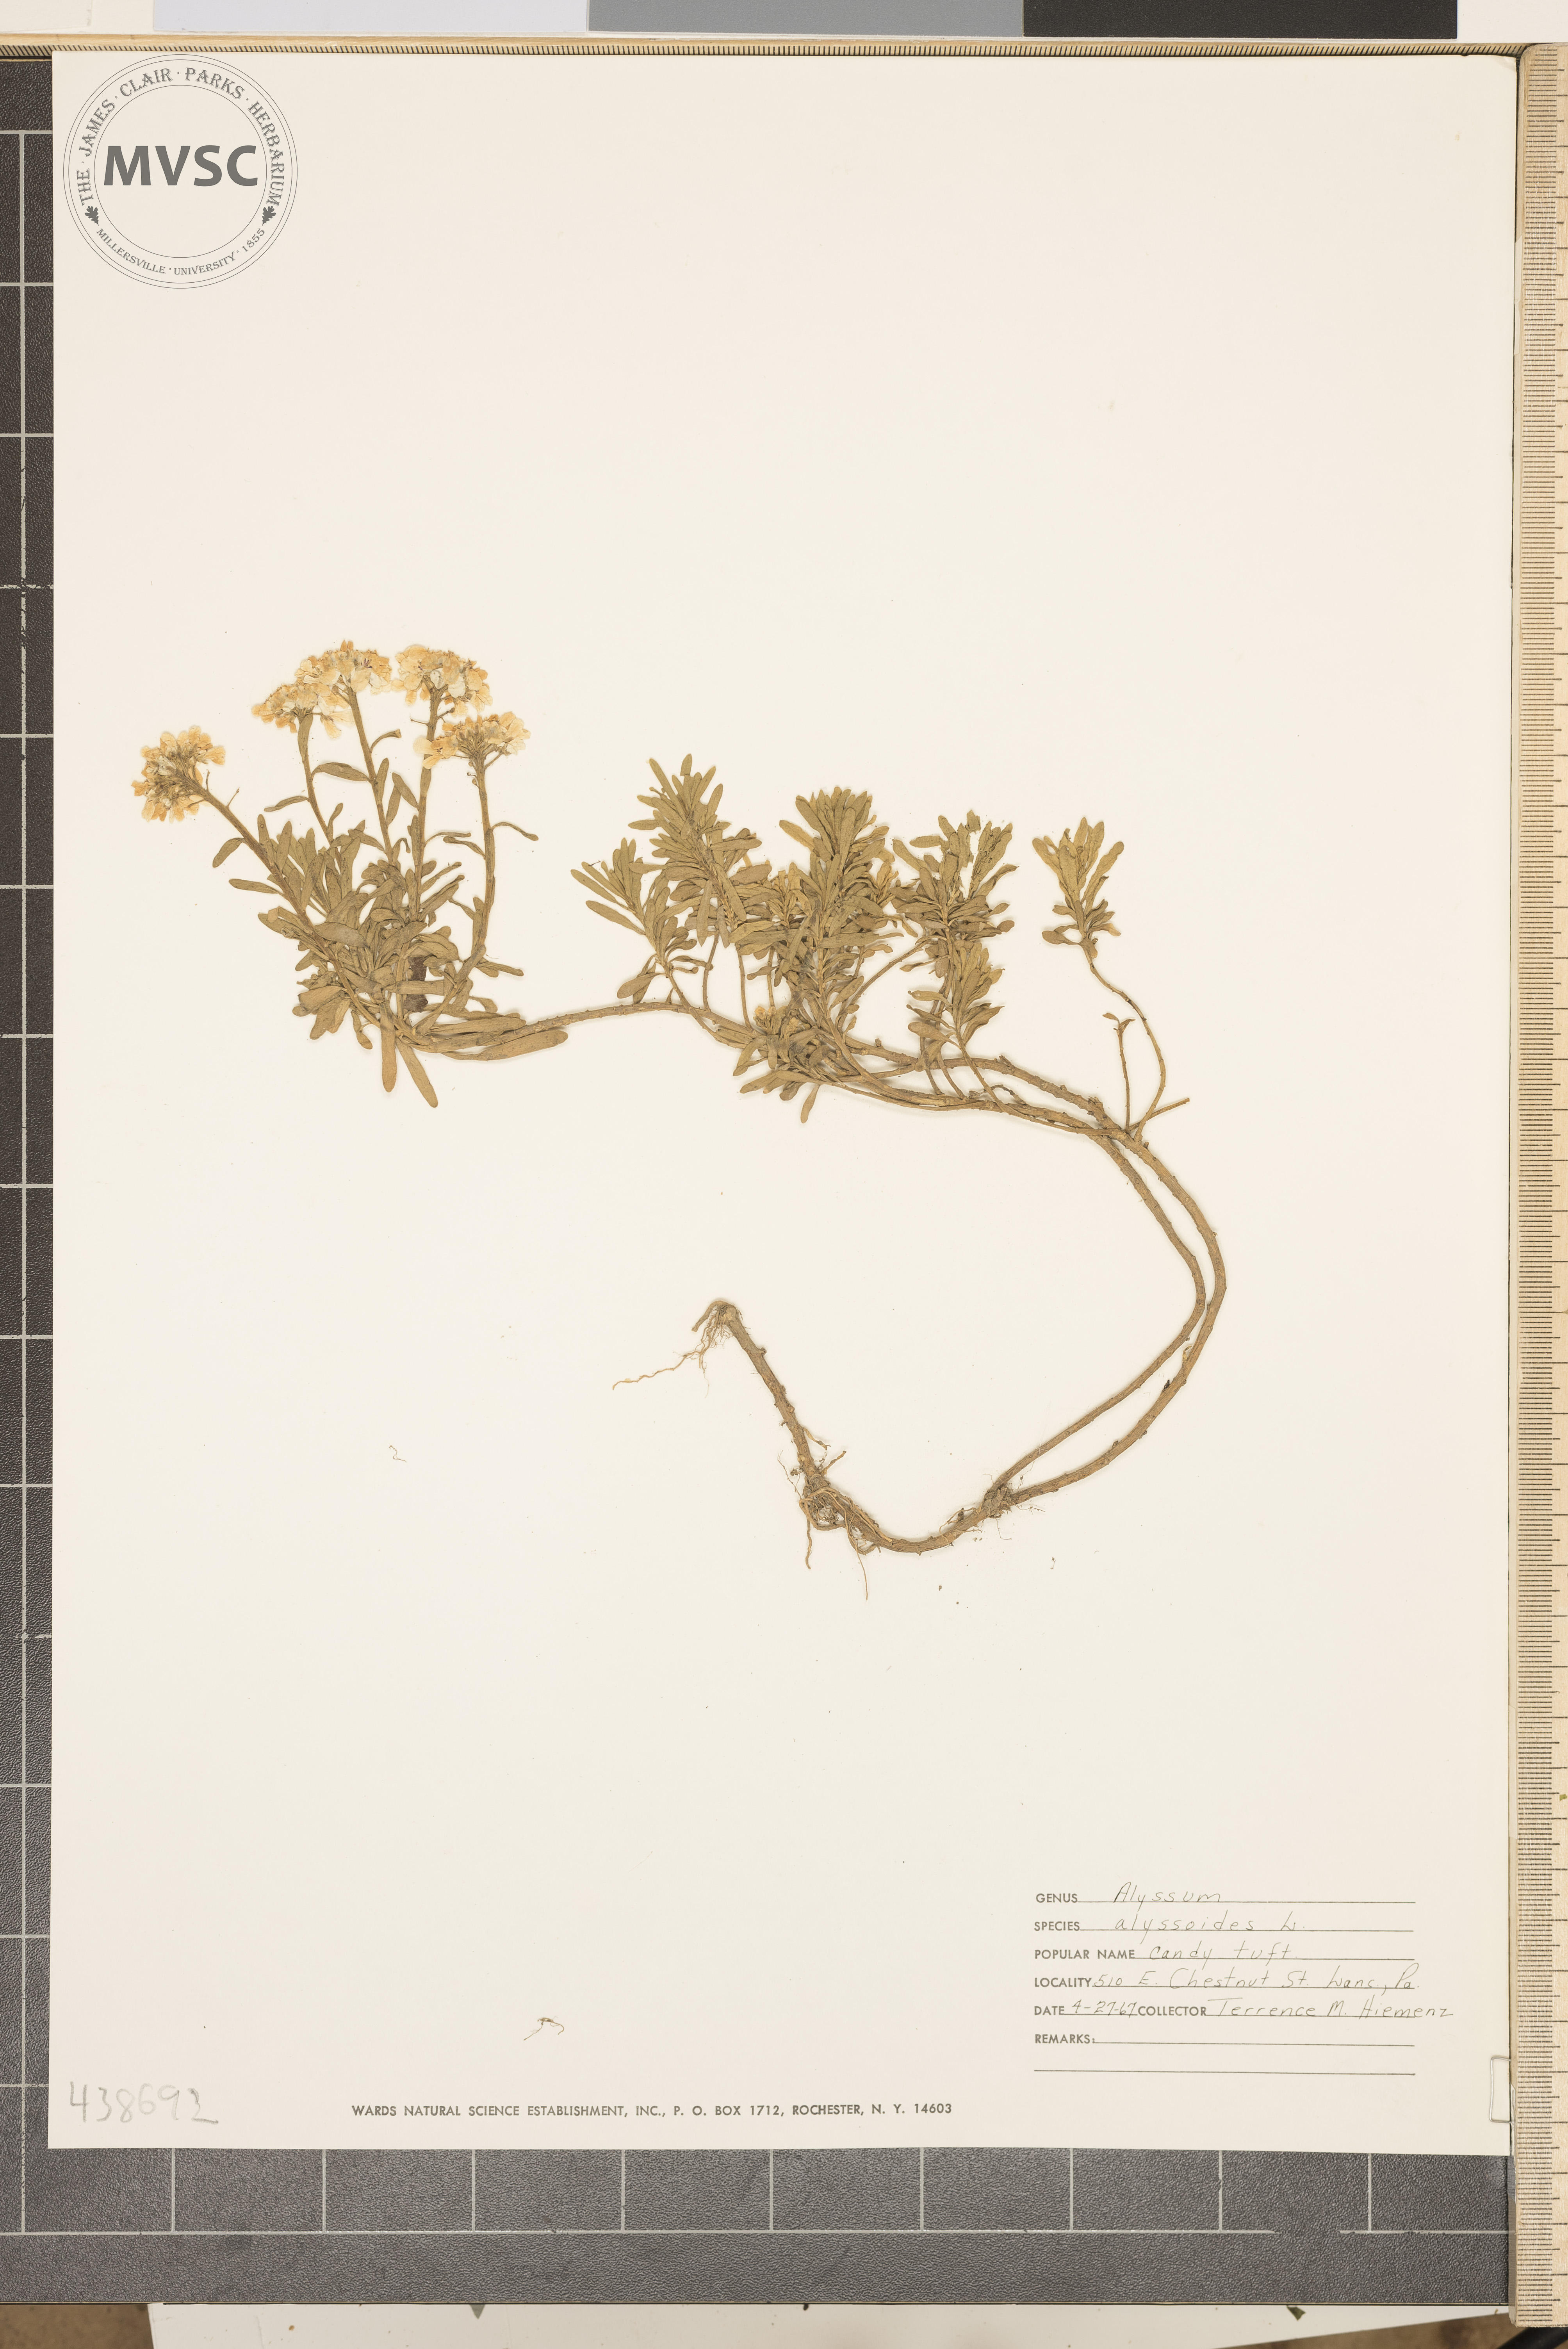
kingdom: Plantae
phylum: Tracheophyta
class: Magnoliopsida
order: Brassicales
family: Brassicaceae
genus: Alyssum
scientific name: Alyssum alyssoides
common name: Small alison
